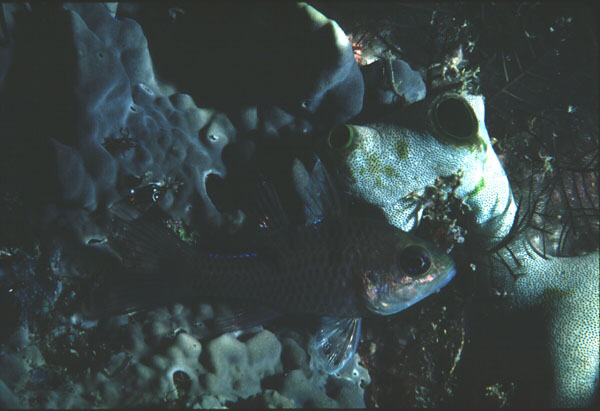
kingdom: Animalia
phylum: Chordata
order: Perciformes
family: Apogonidae
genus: Pristicon
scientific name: Pristicon trimaculatus
